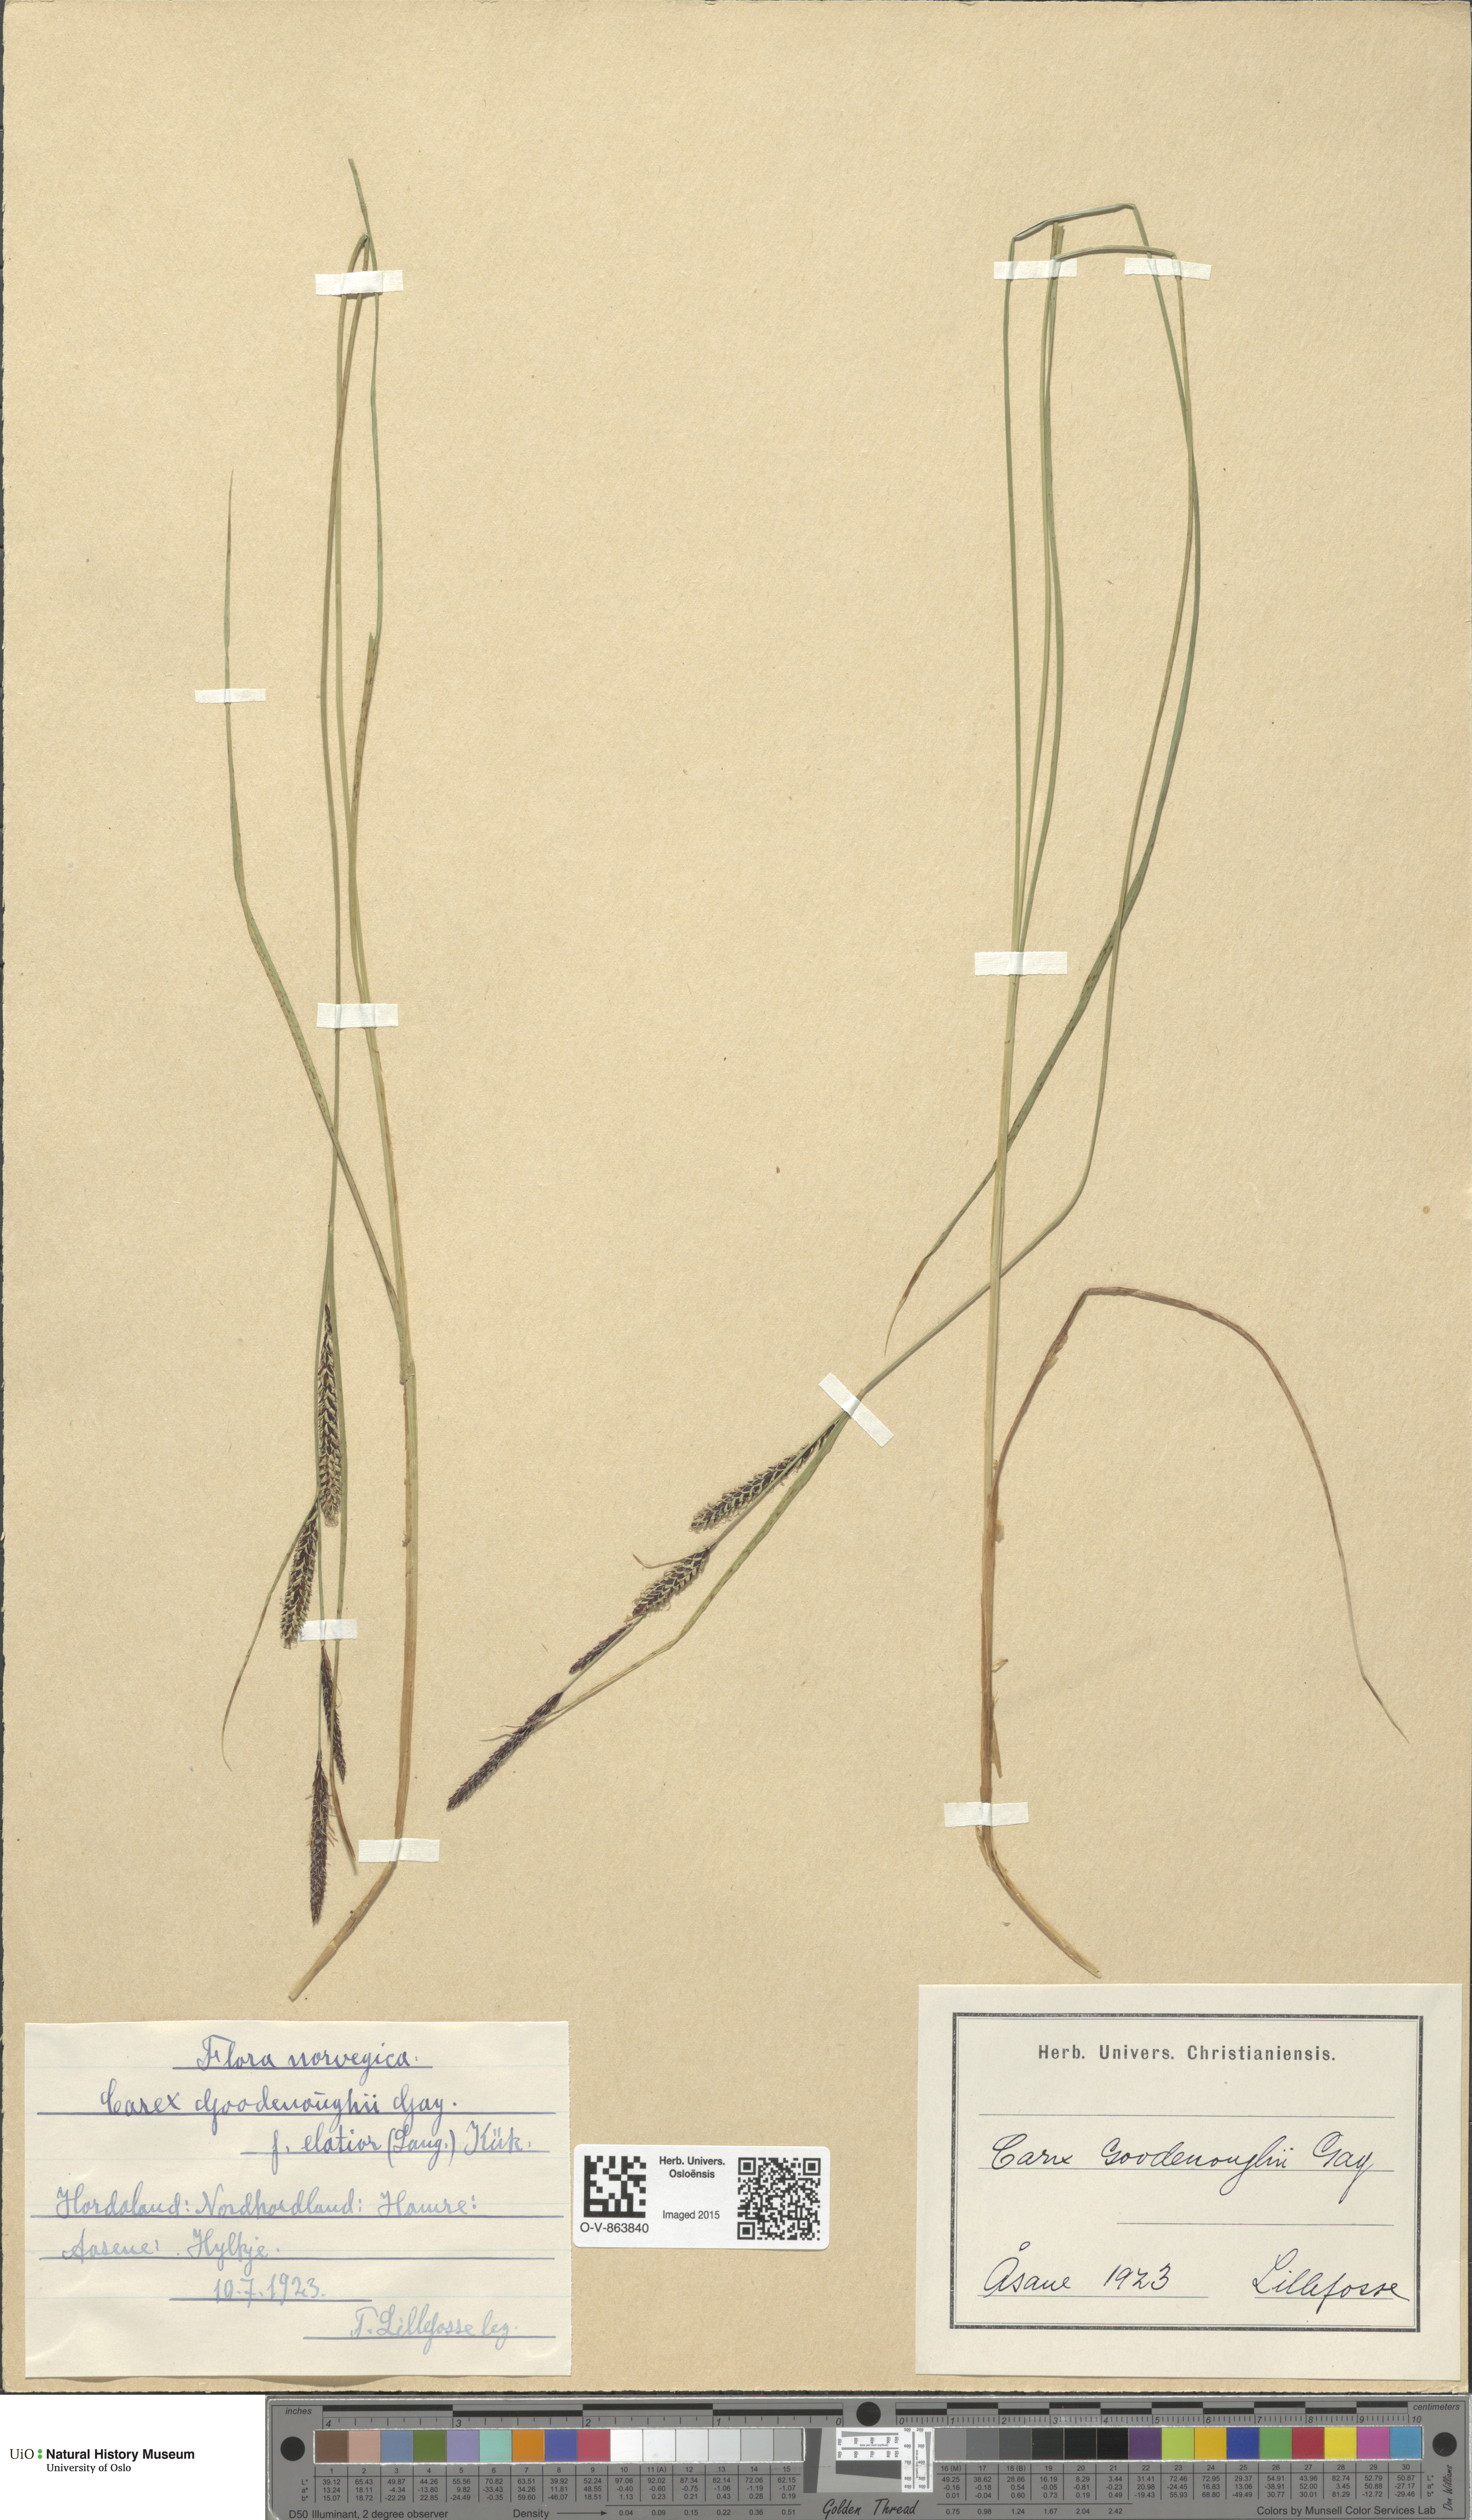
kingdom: Plantae
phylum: Tracheophyta
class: Liliopsida
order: Poales
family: Cyperaceae
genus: Carex
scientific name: Carex nigra
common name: Common sedge
